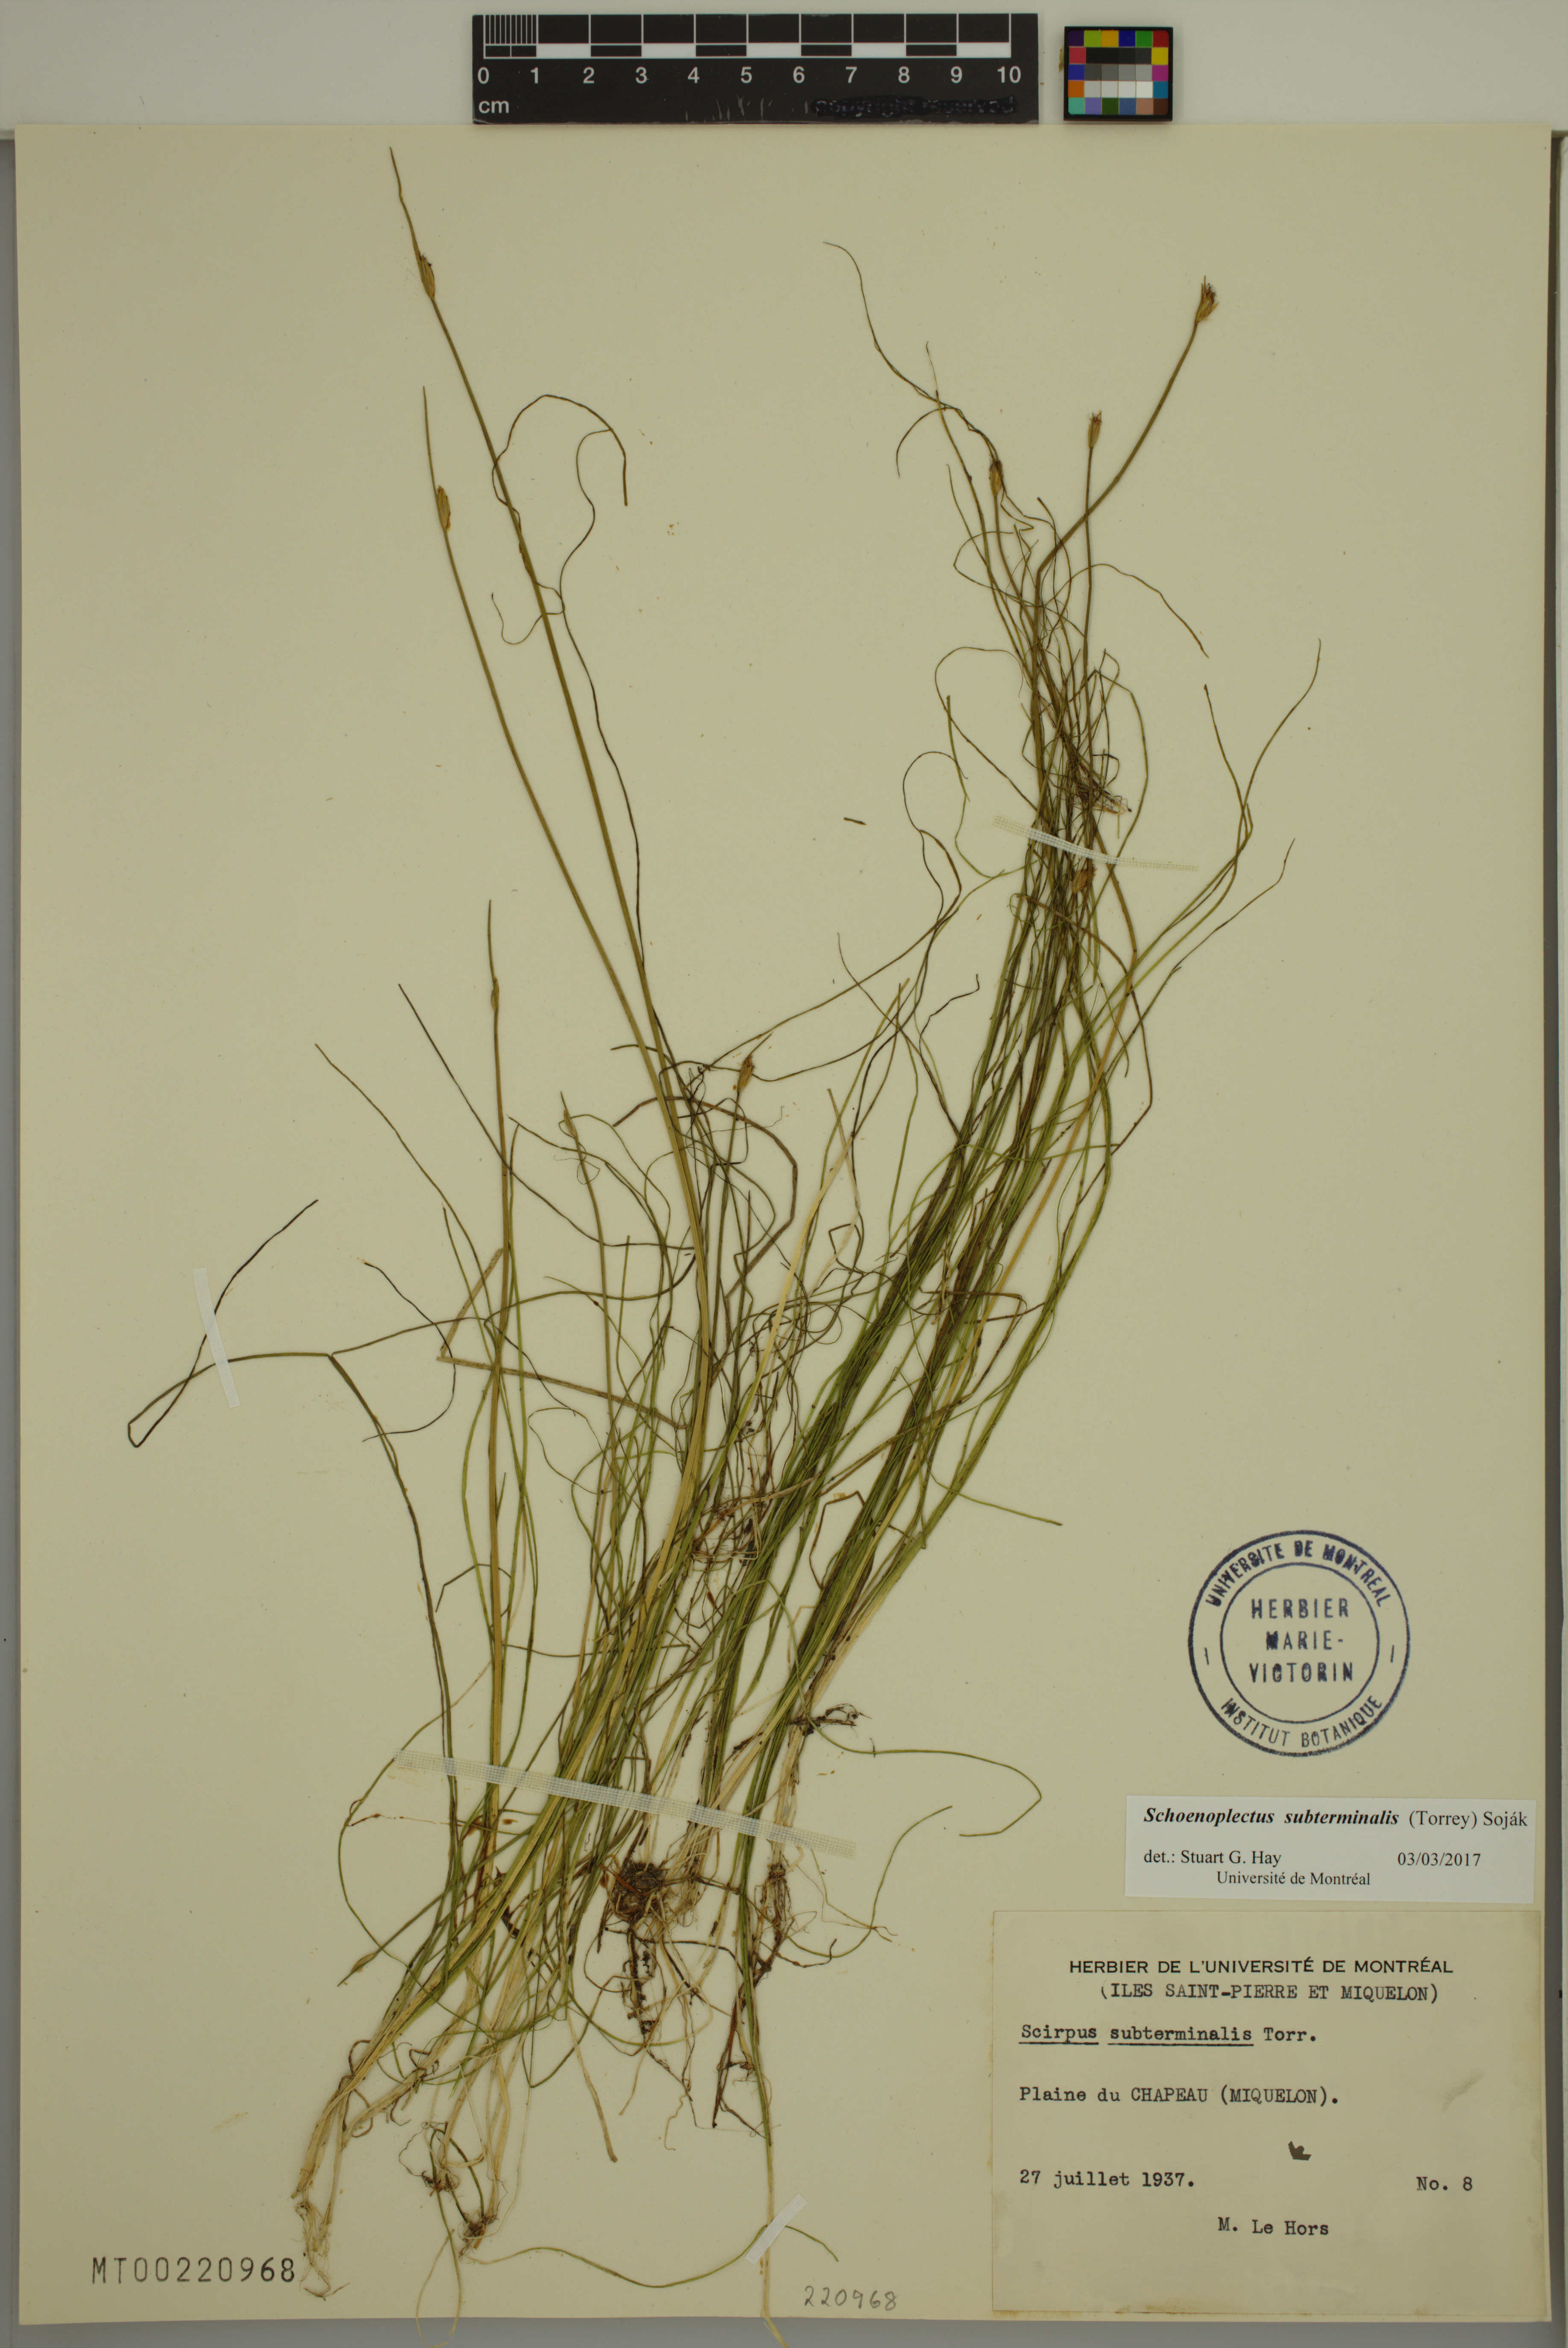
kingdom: Plantae
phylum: Tracheophyta
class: Liliopsida
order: Poales
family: Cyperaceae
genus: Schoenoplectus
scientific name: Schoenoplectus subterminalis
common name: Swaying bulrush
